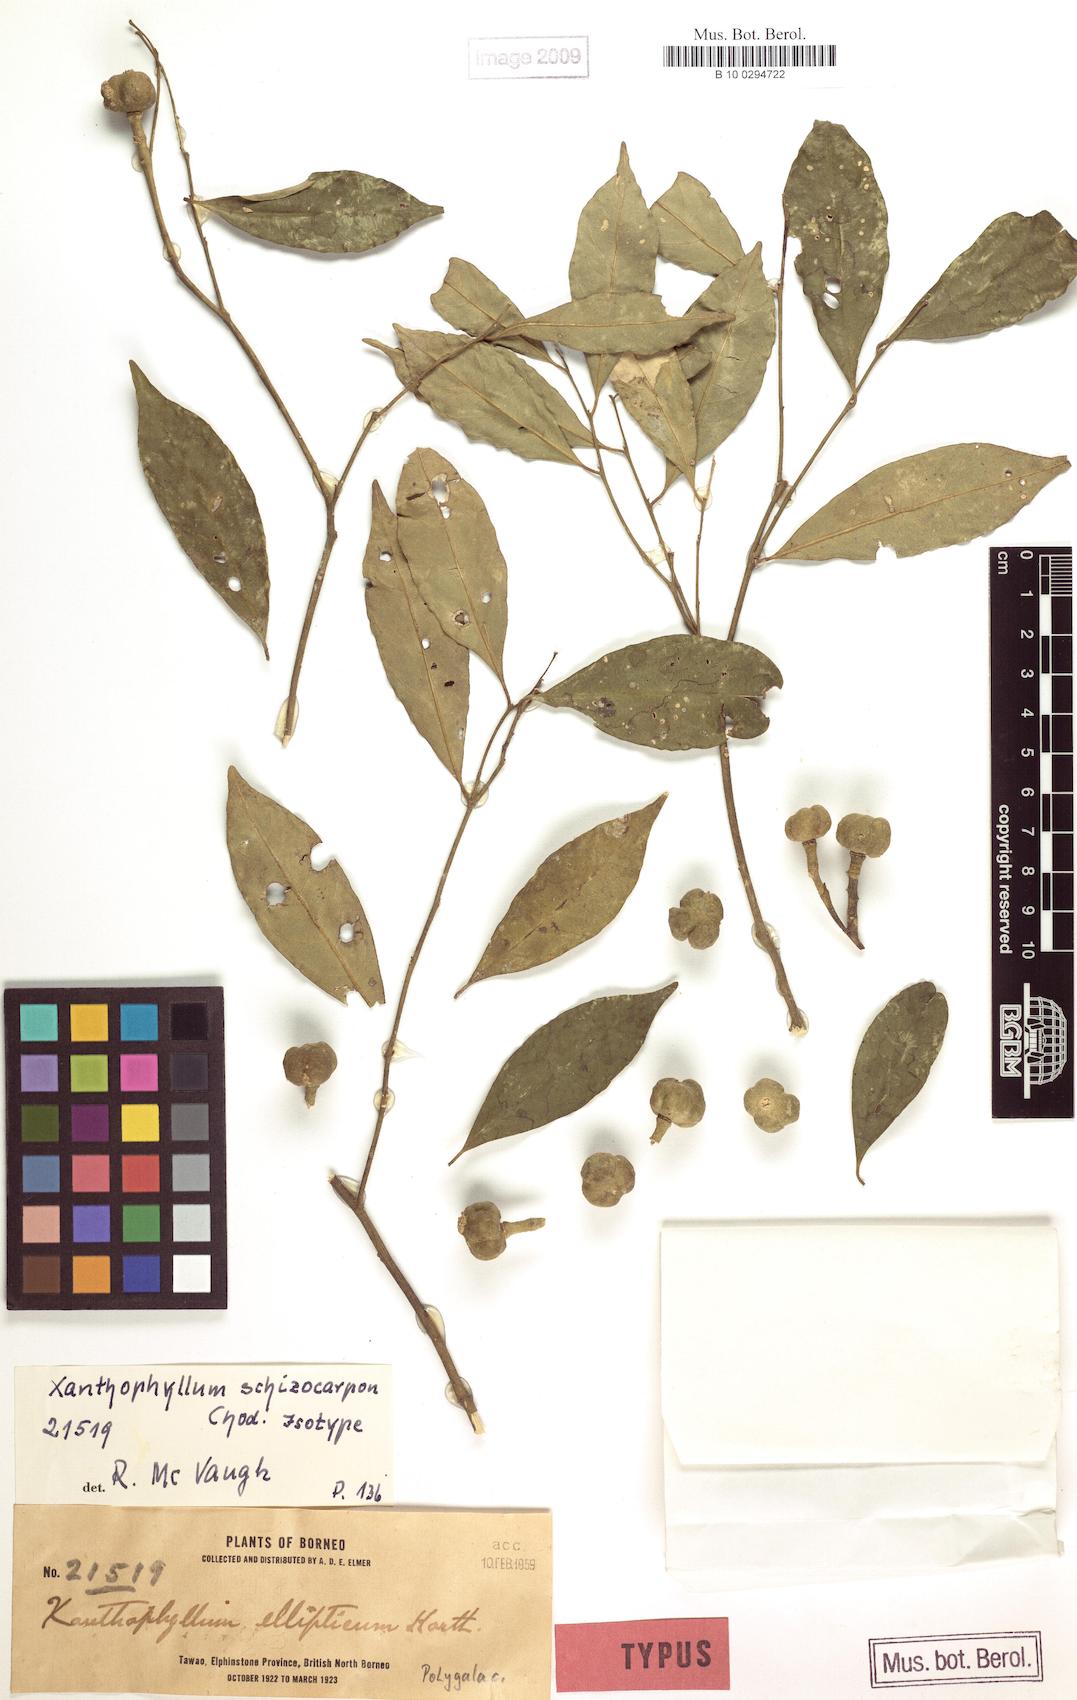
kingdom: Plantae
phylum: Tracheophyta
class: Magnoliopsida
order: Fabales
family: Polygalaceae
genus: Xanthophyllum
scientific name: Xanthophyllum schizocarpon
